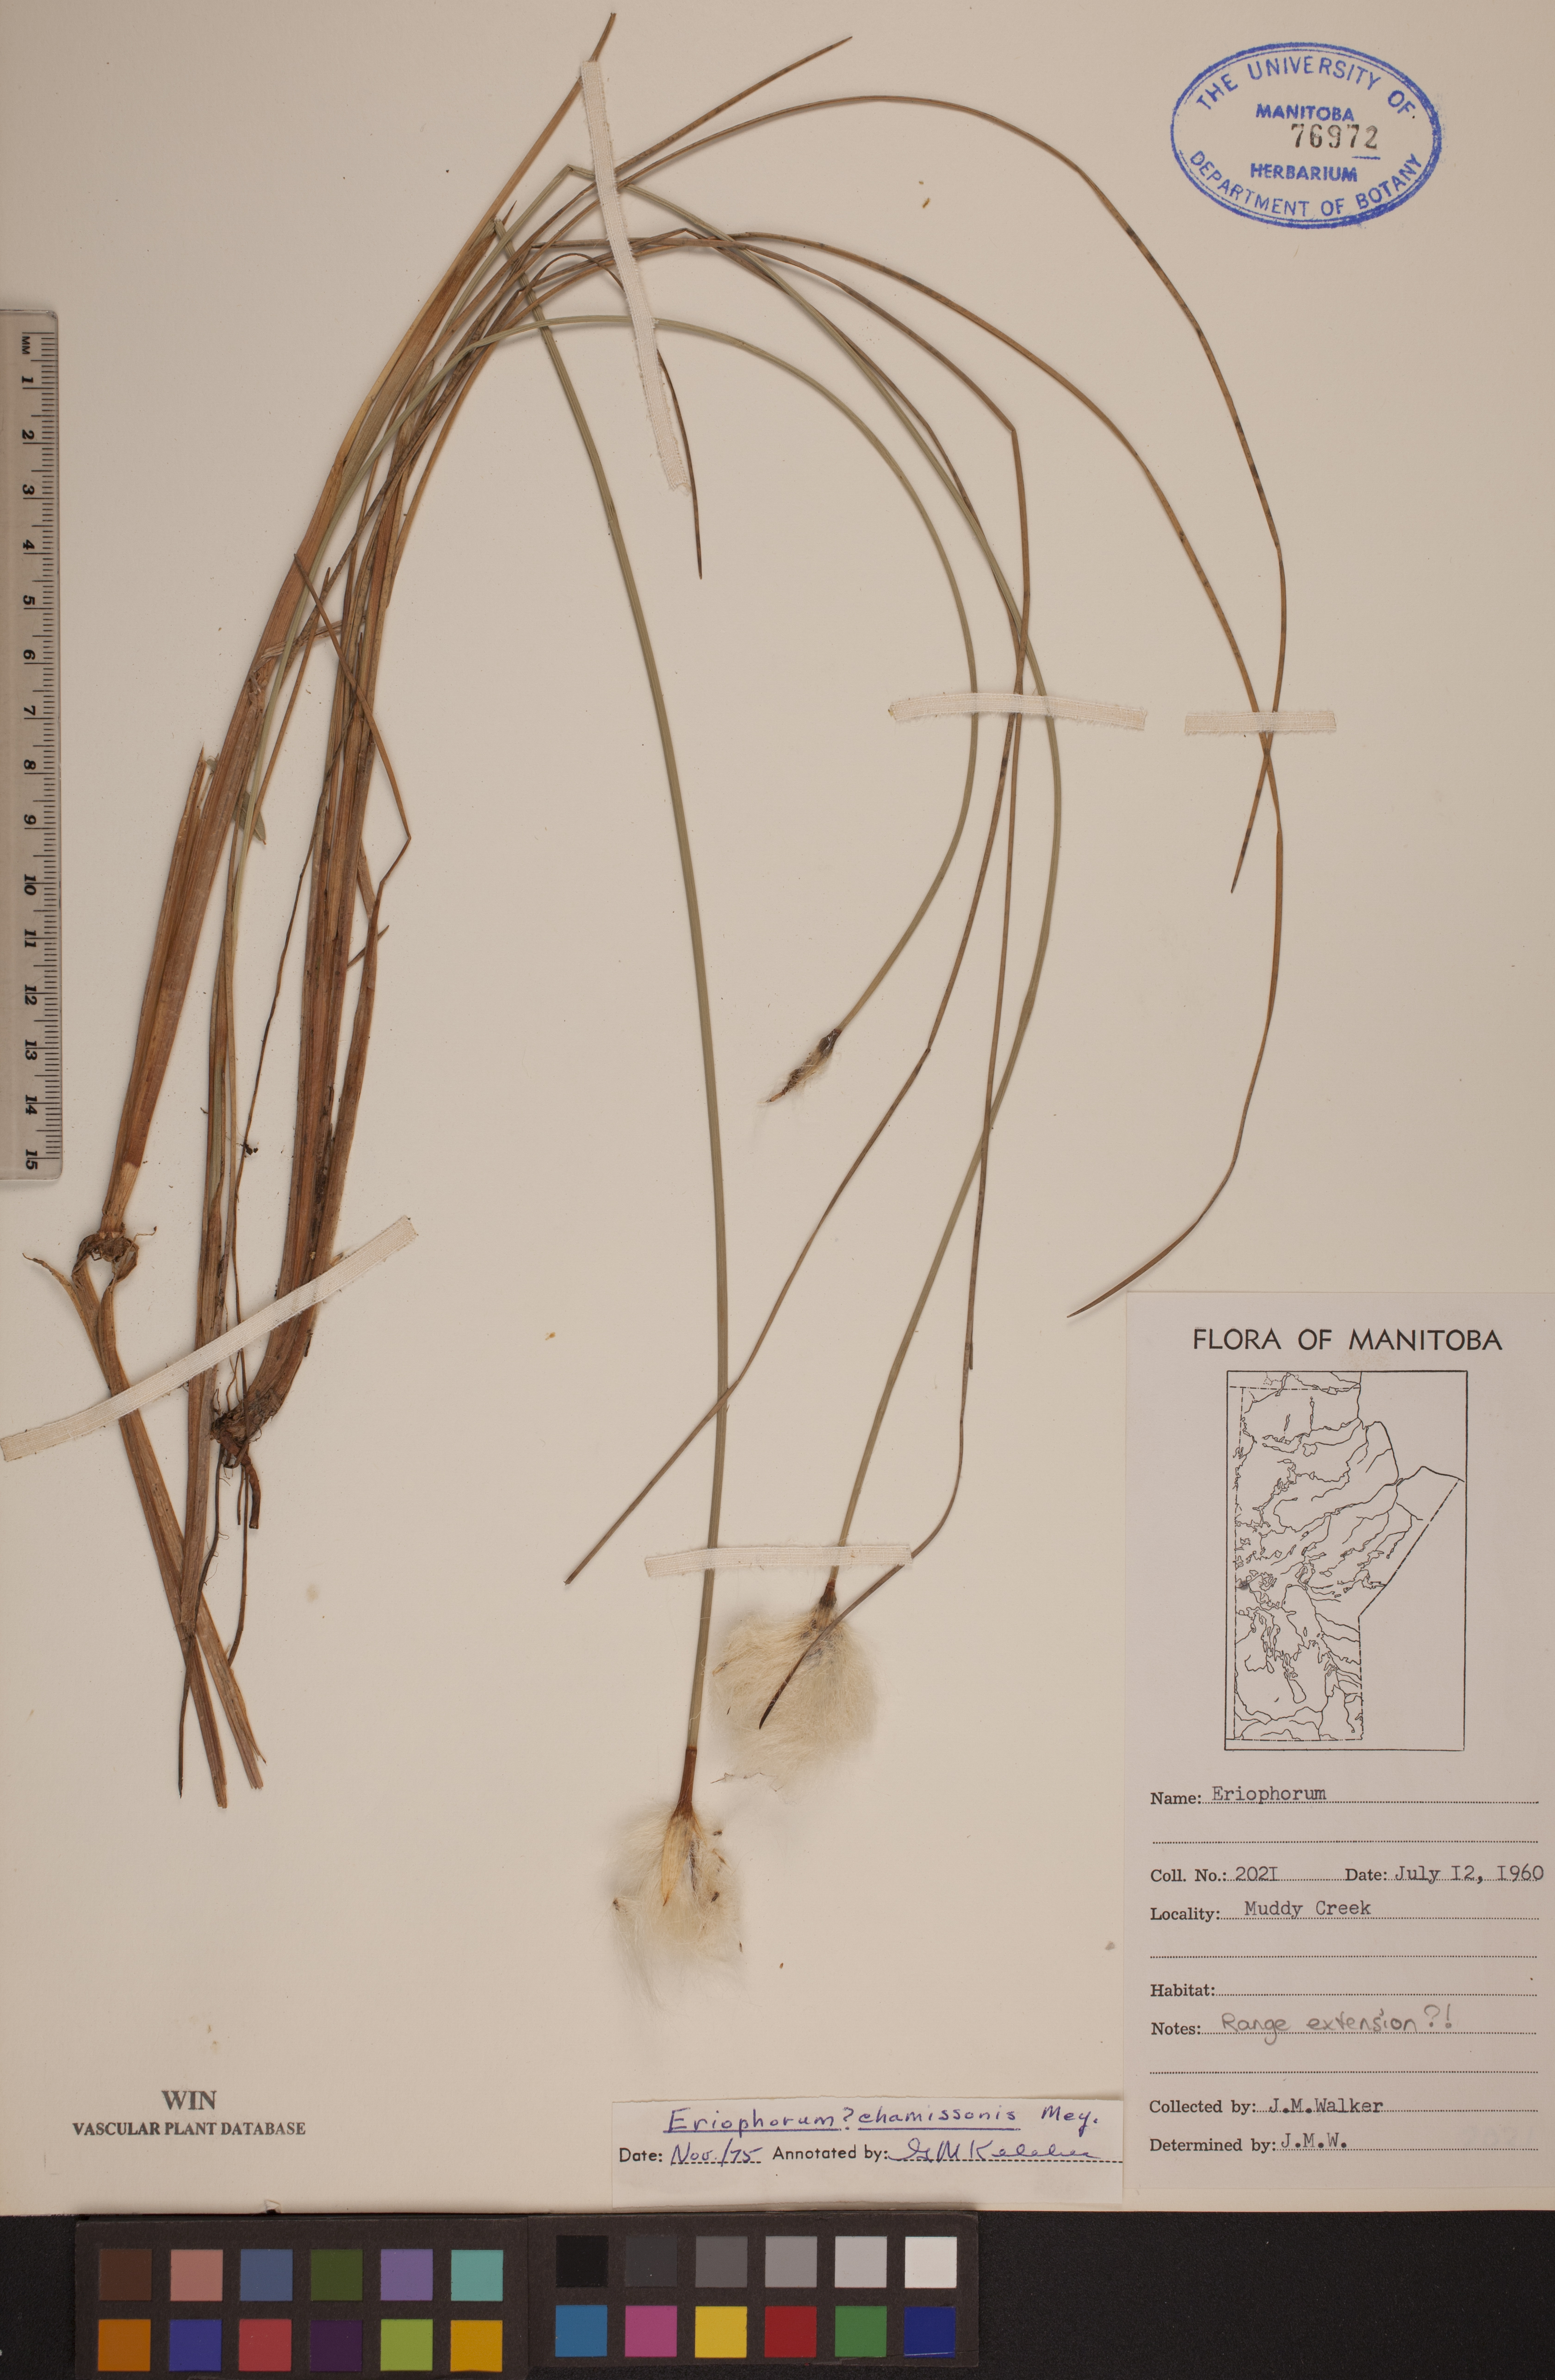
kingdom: Plantae
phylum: Tracheophyta
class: Liliopsida
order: Poales
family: Cyperaceae
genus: Eriophorum
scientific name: Eriophorum chamissonis
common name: Chamisso's cottongrass
